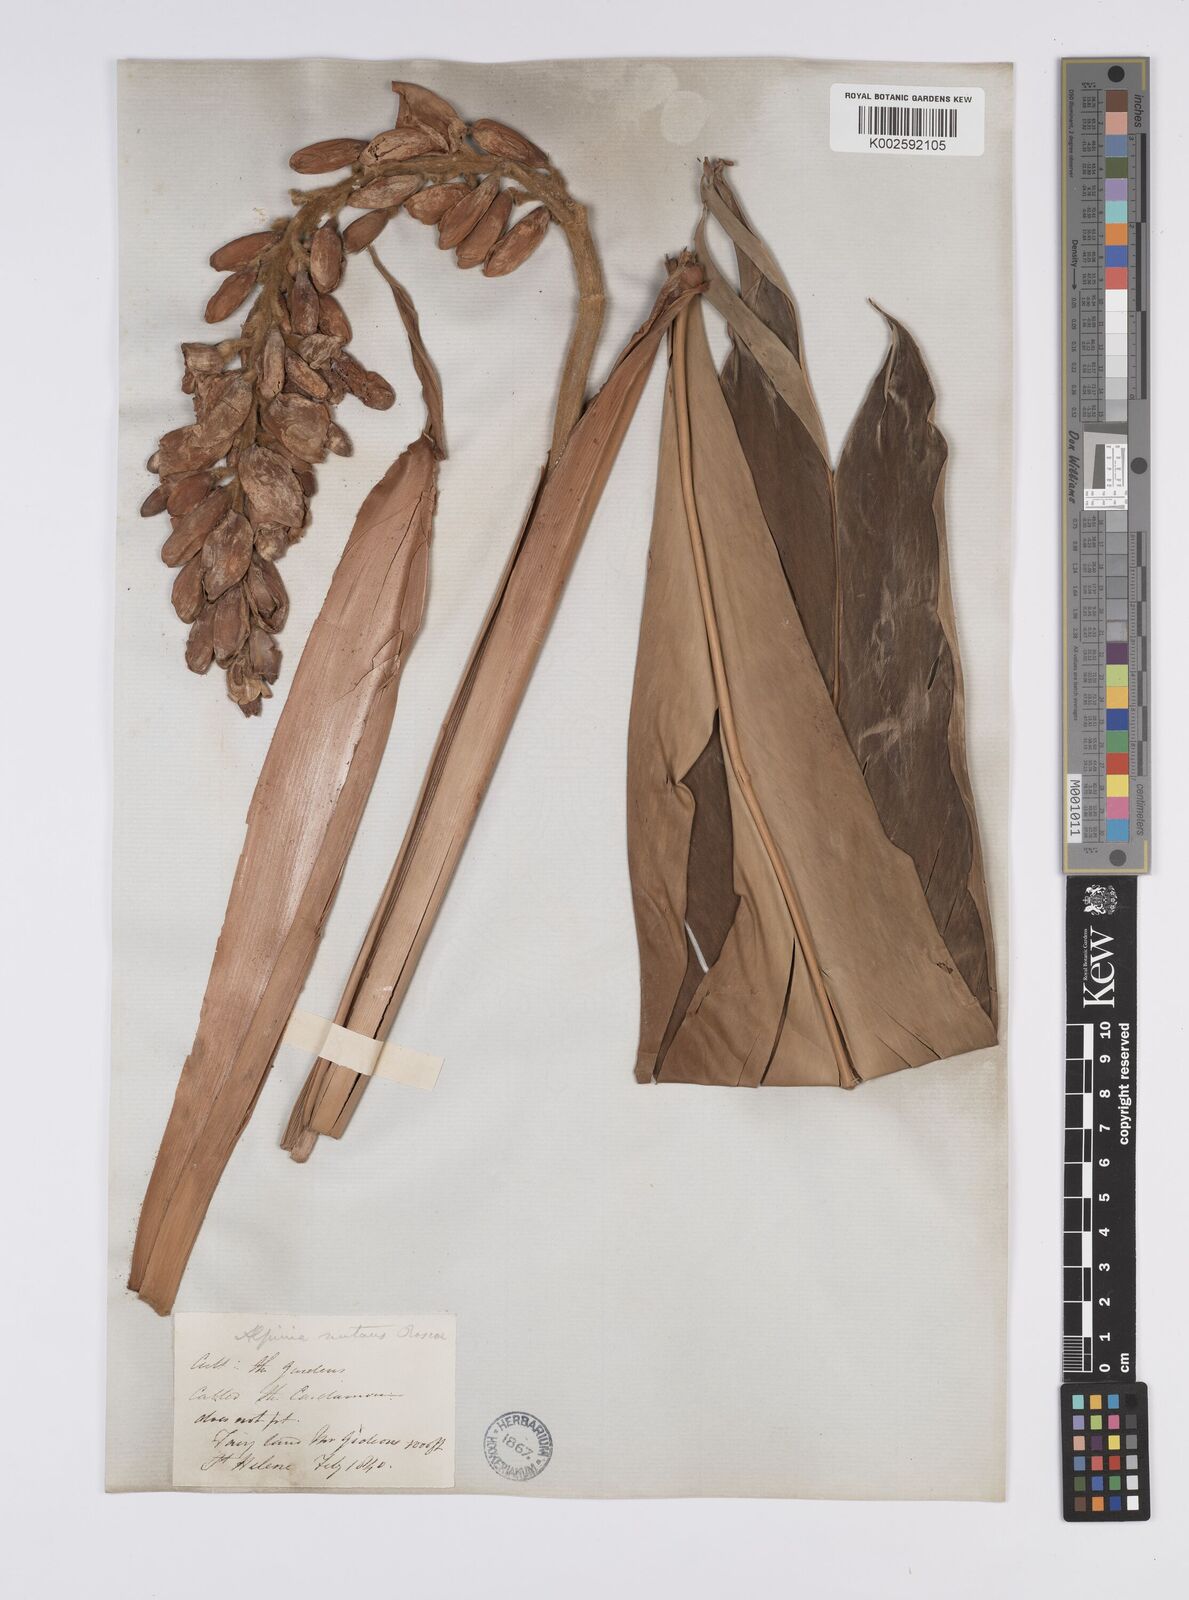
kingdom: Plantae
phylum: Tracheophyta
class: Liliopsida
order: Zingiberales
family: Zingiberaceae
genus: Alpinia
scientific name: Alpinia
